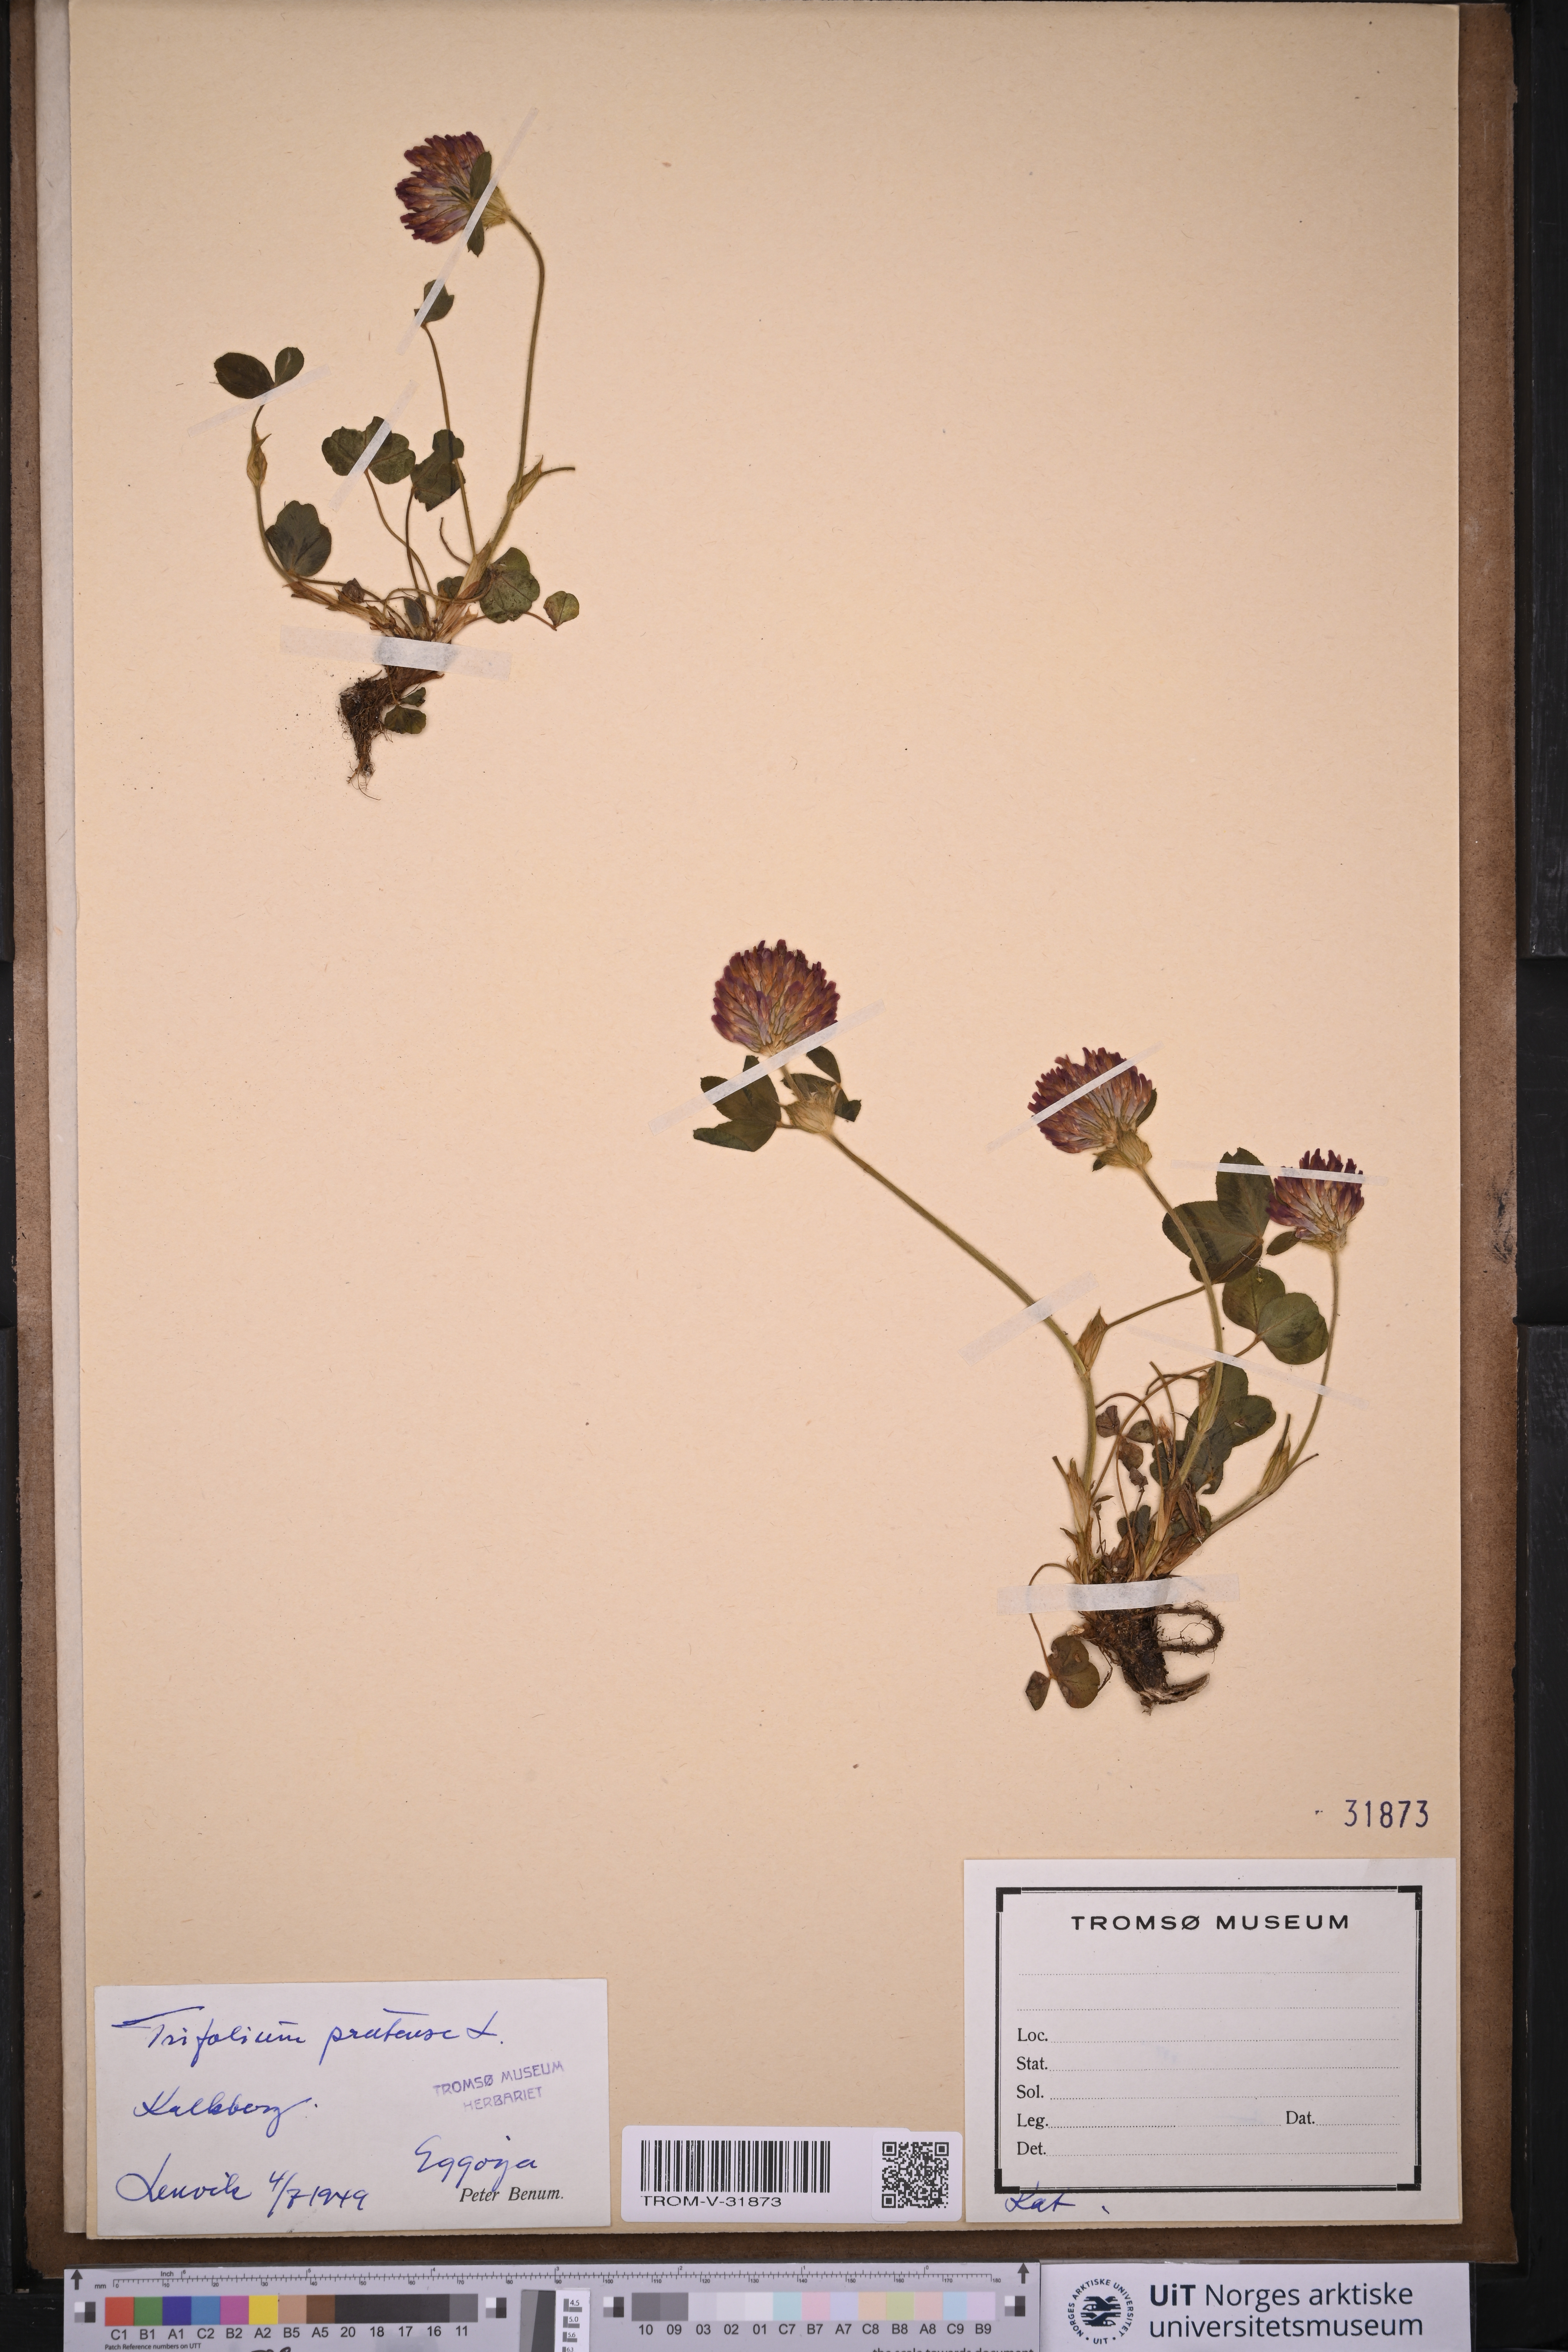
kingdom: Plantae
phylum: Tracheophyta
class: Magnoliopsida
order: Fabales
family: Fabaceae
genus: Trifolium
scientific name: Trifolium pratense
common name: Red clover
